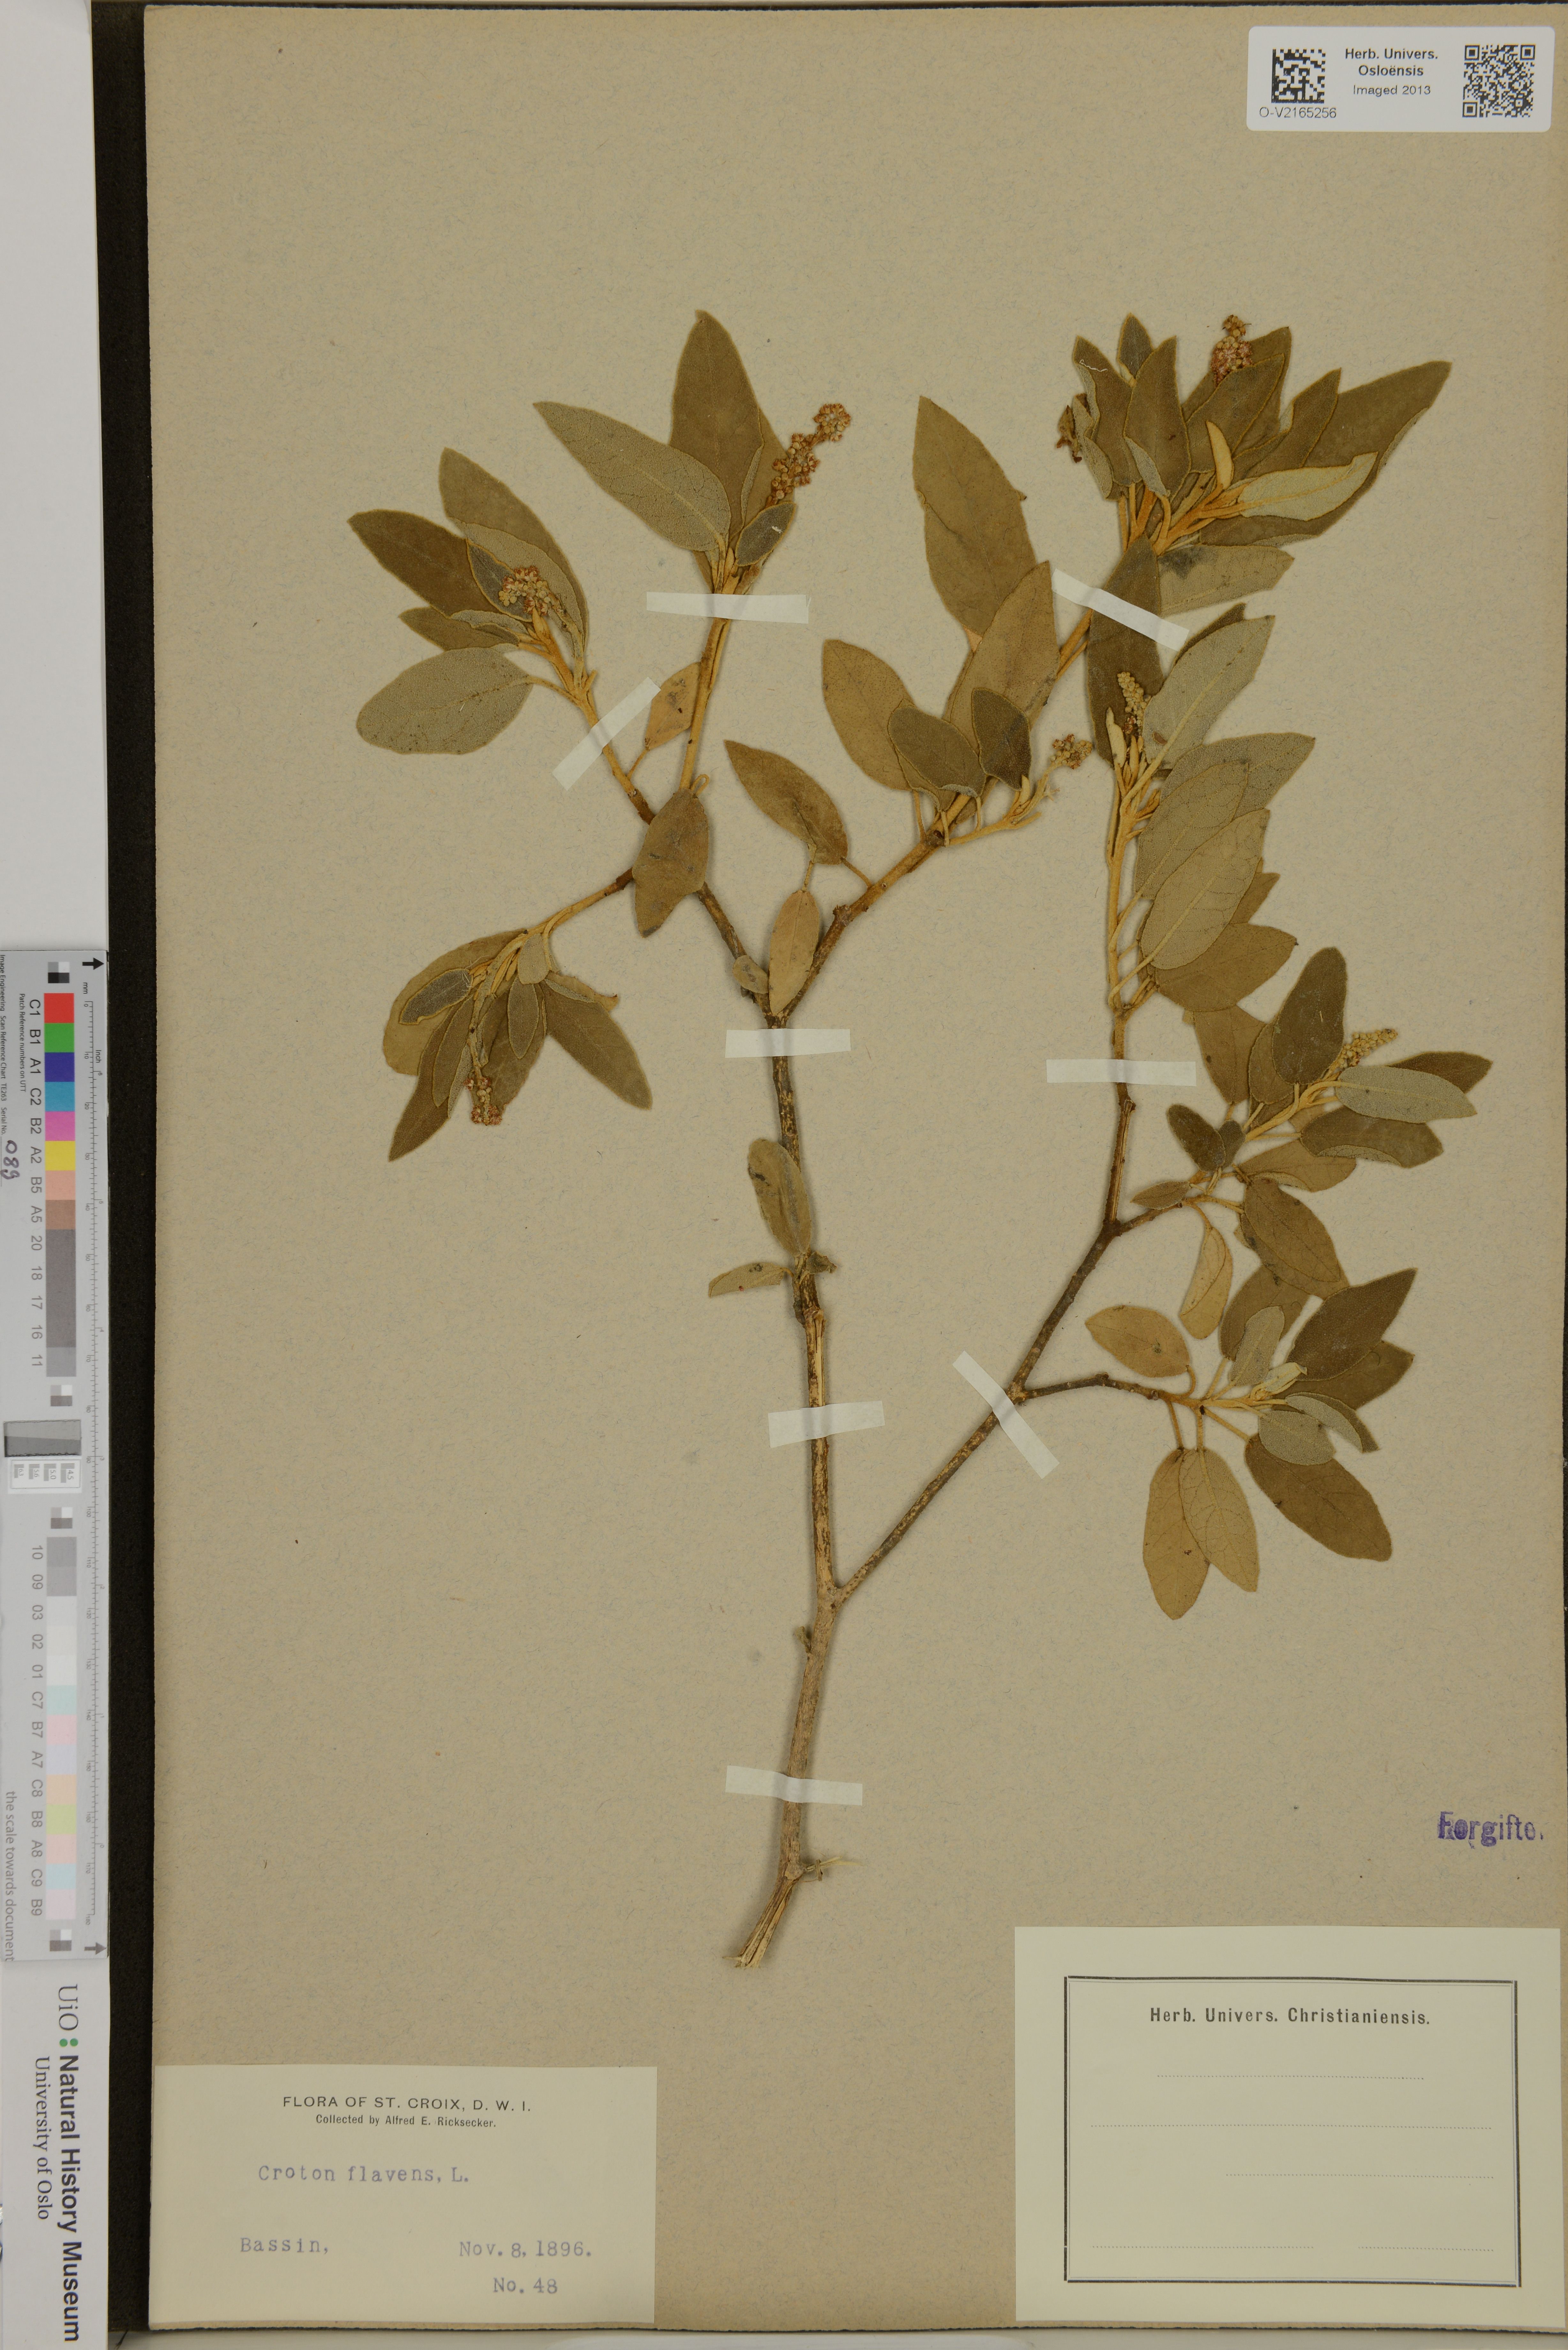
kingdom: Plantae
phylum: Tracheophyta
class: Magnoliopsida
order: Malpighiales
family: Euphorbiaceae
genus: Croton
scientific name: Croton flavens
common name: Yellow balsam
